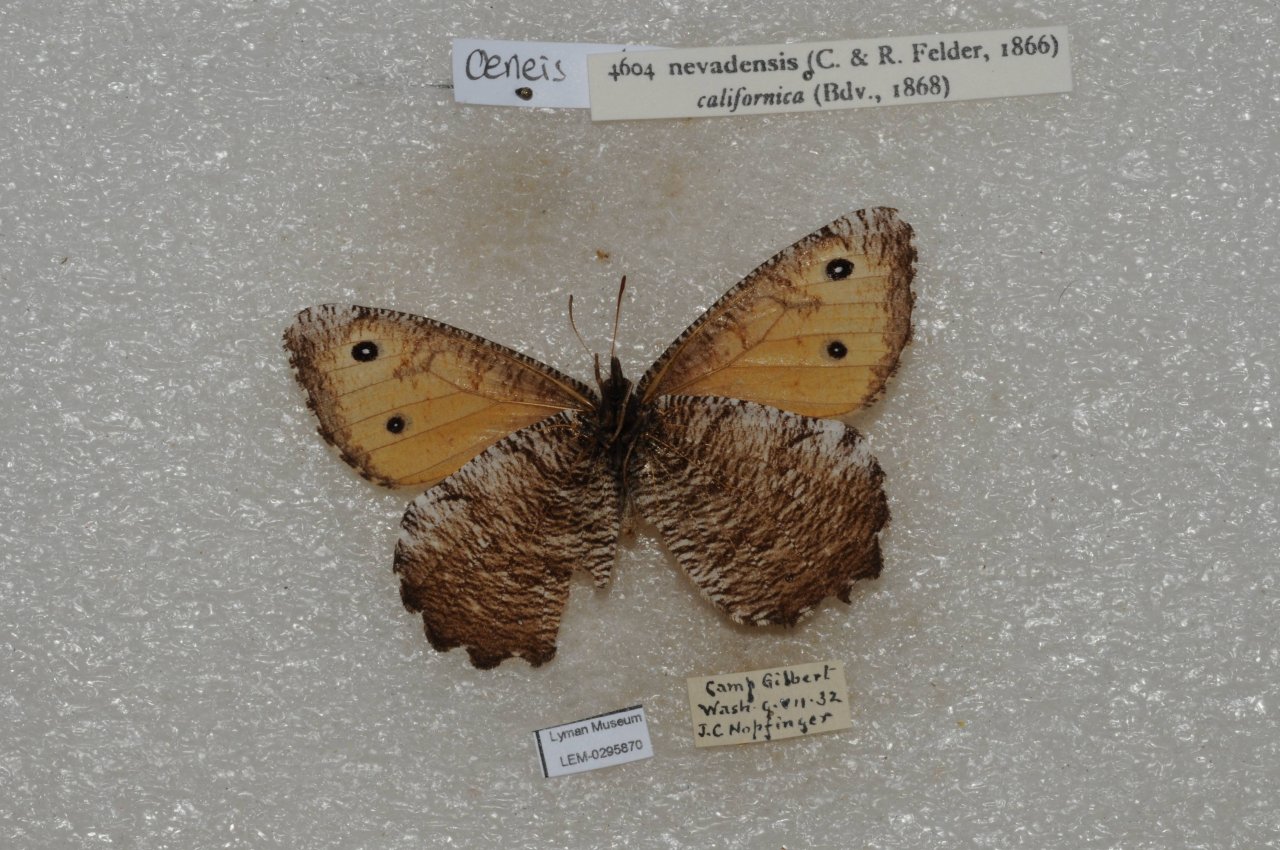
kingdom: Animalia
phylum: Arthropoda
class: Insecta
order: Lepidoptera
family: Nymphalidae
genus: Oeneis
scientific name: Oeneis nevadensis
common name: Great Arctic
